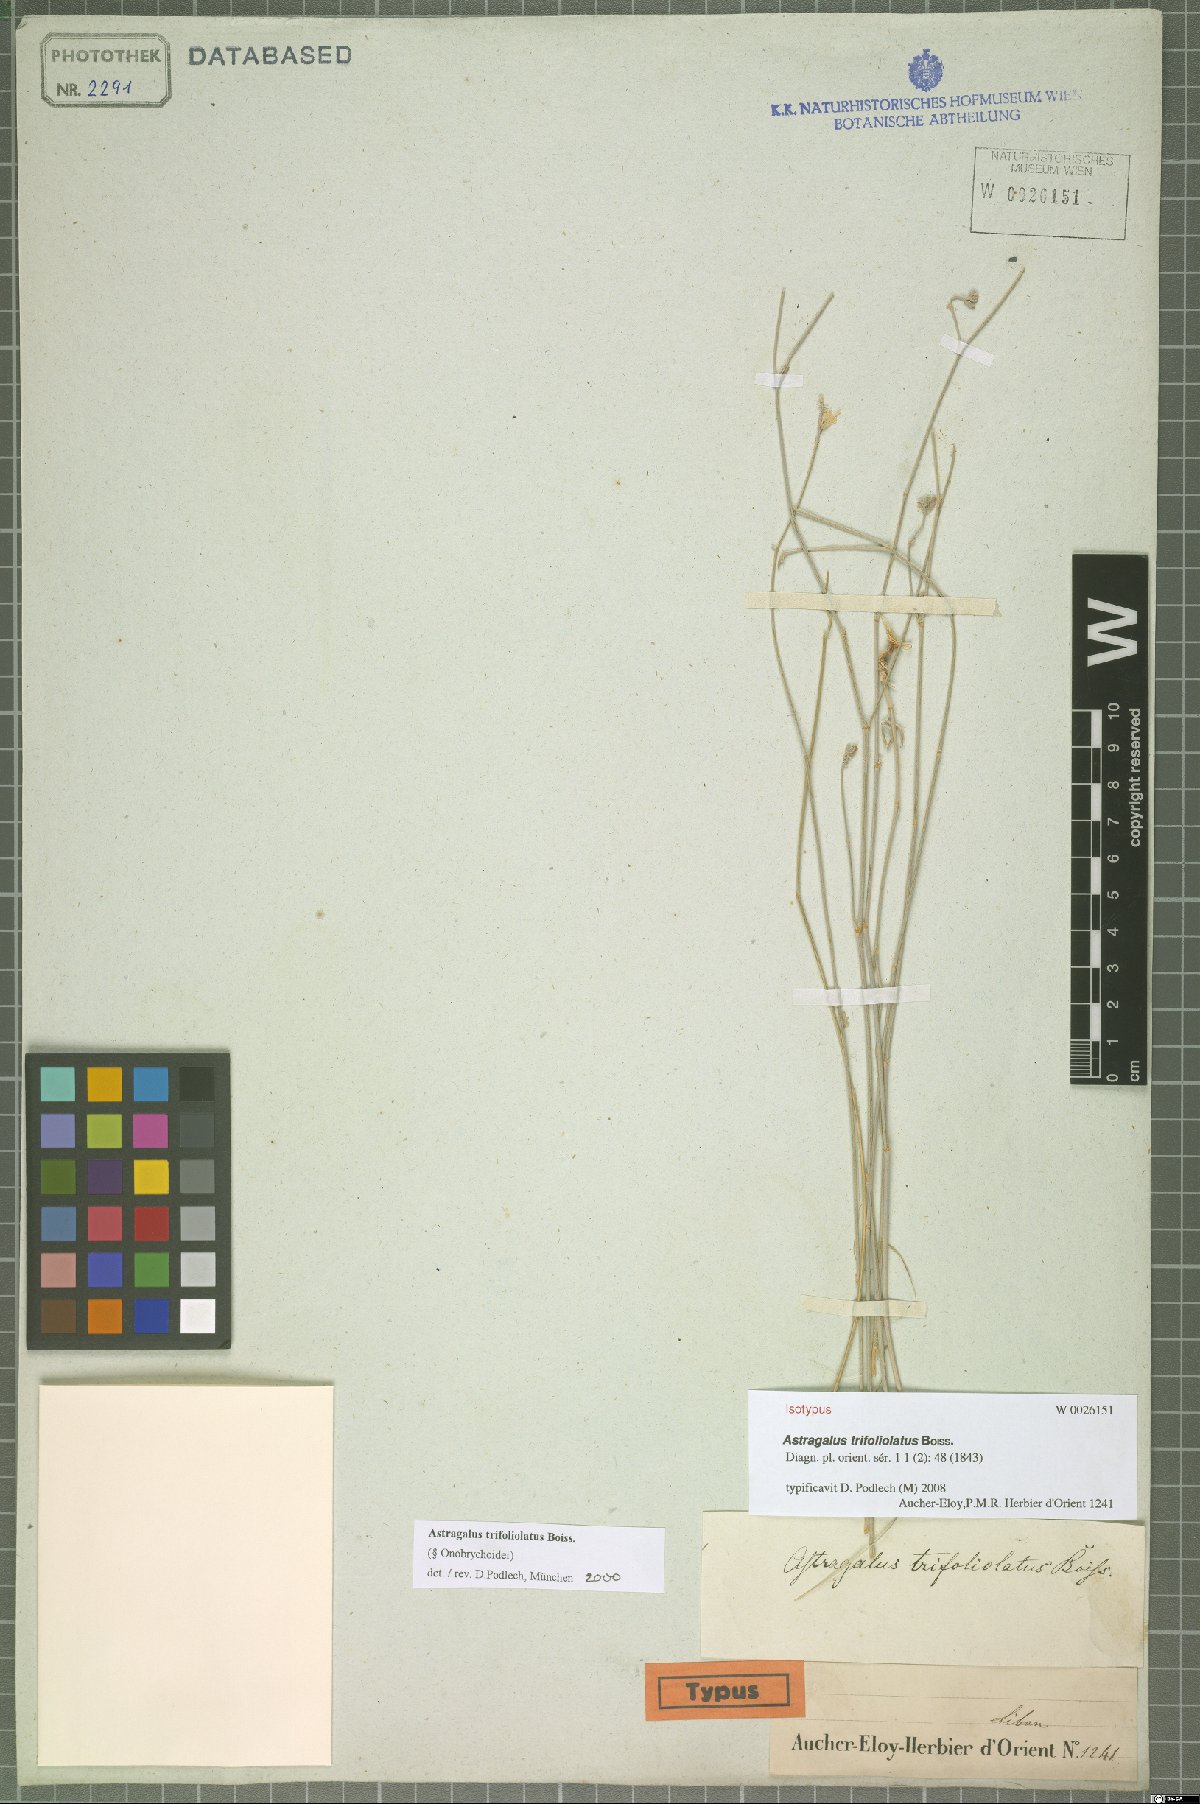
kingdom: Plantae
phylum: Tracheophyta
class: Magnoliopsida
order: Fabales
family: Fabaceae
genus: Astragalus
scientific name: Astragalus trifoliolatus
